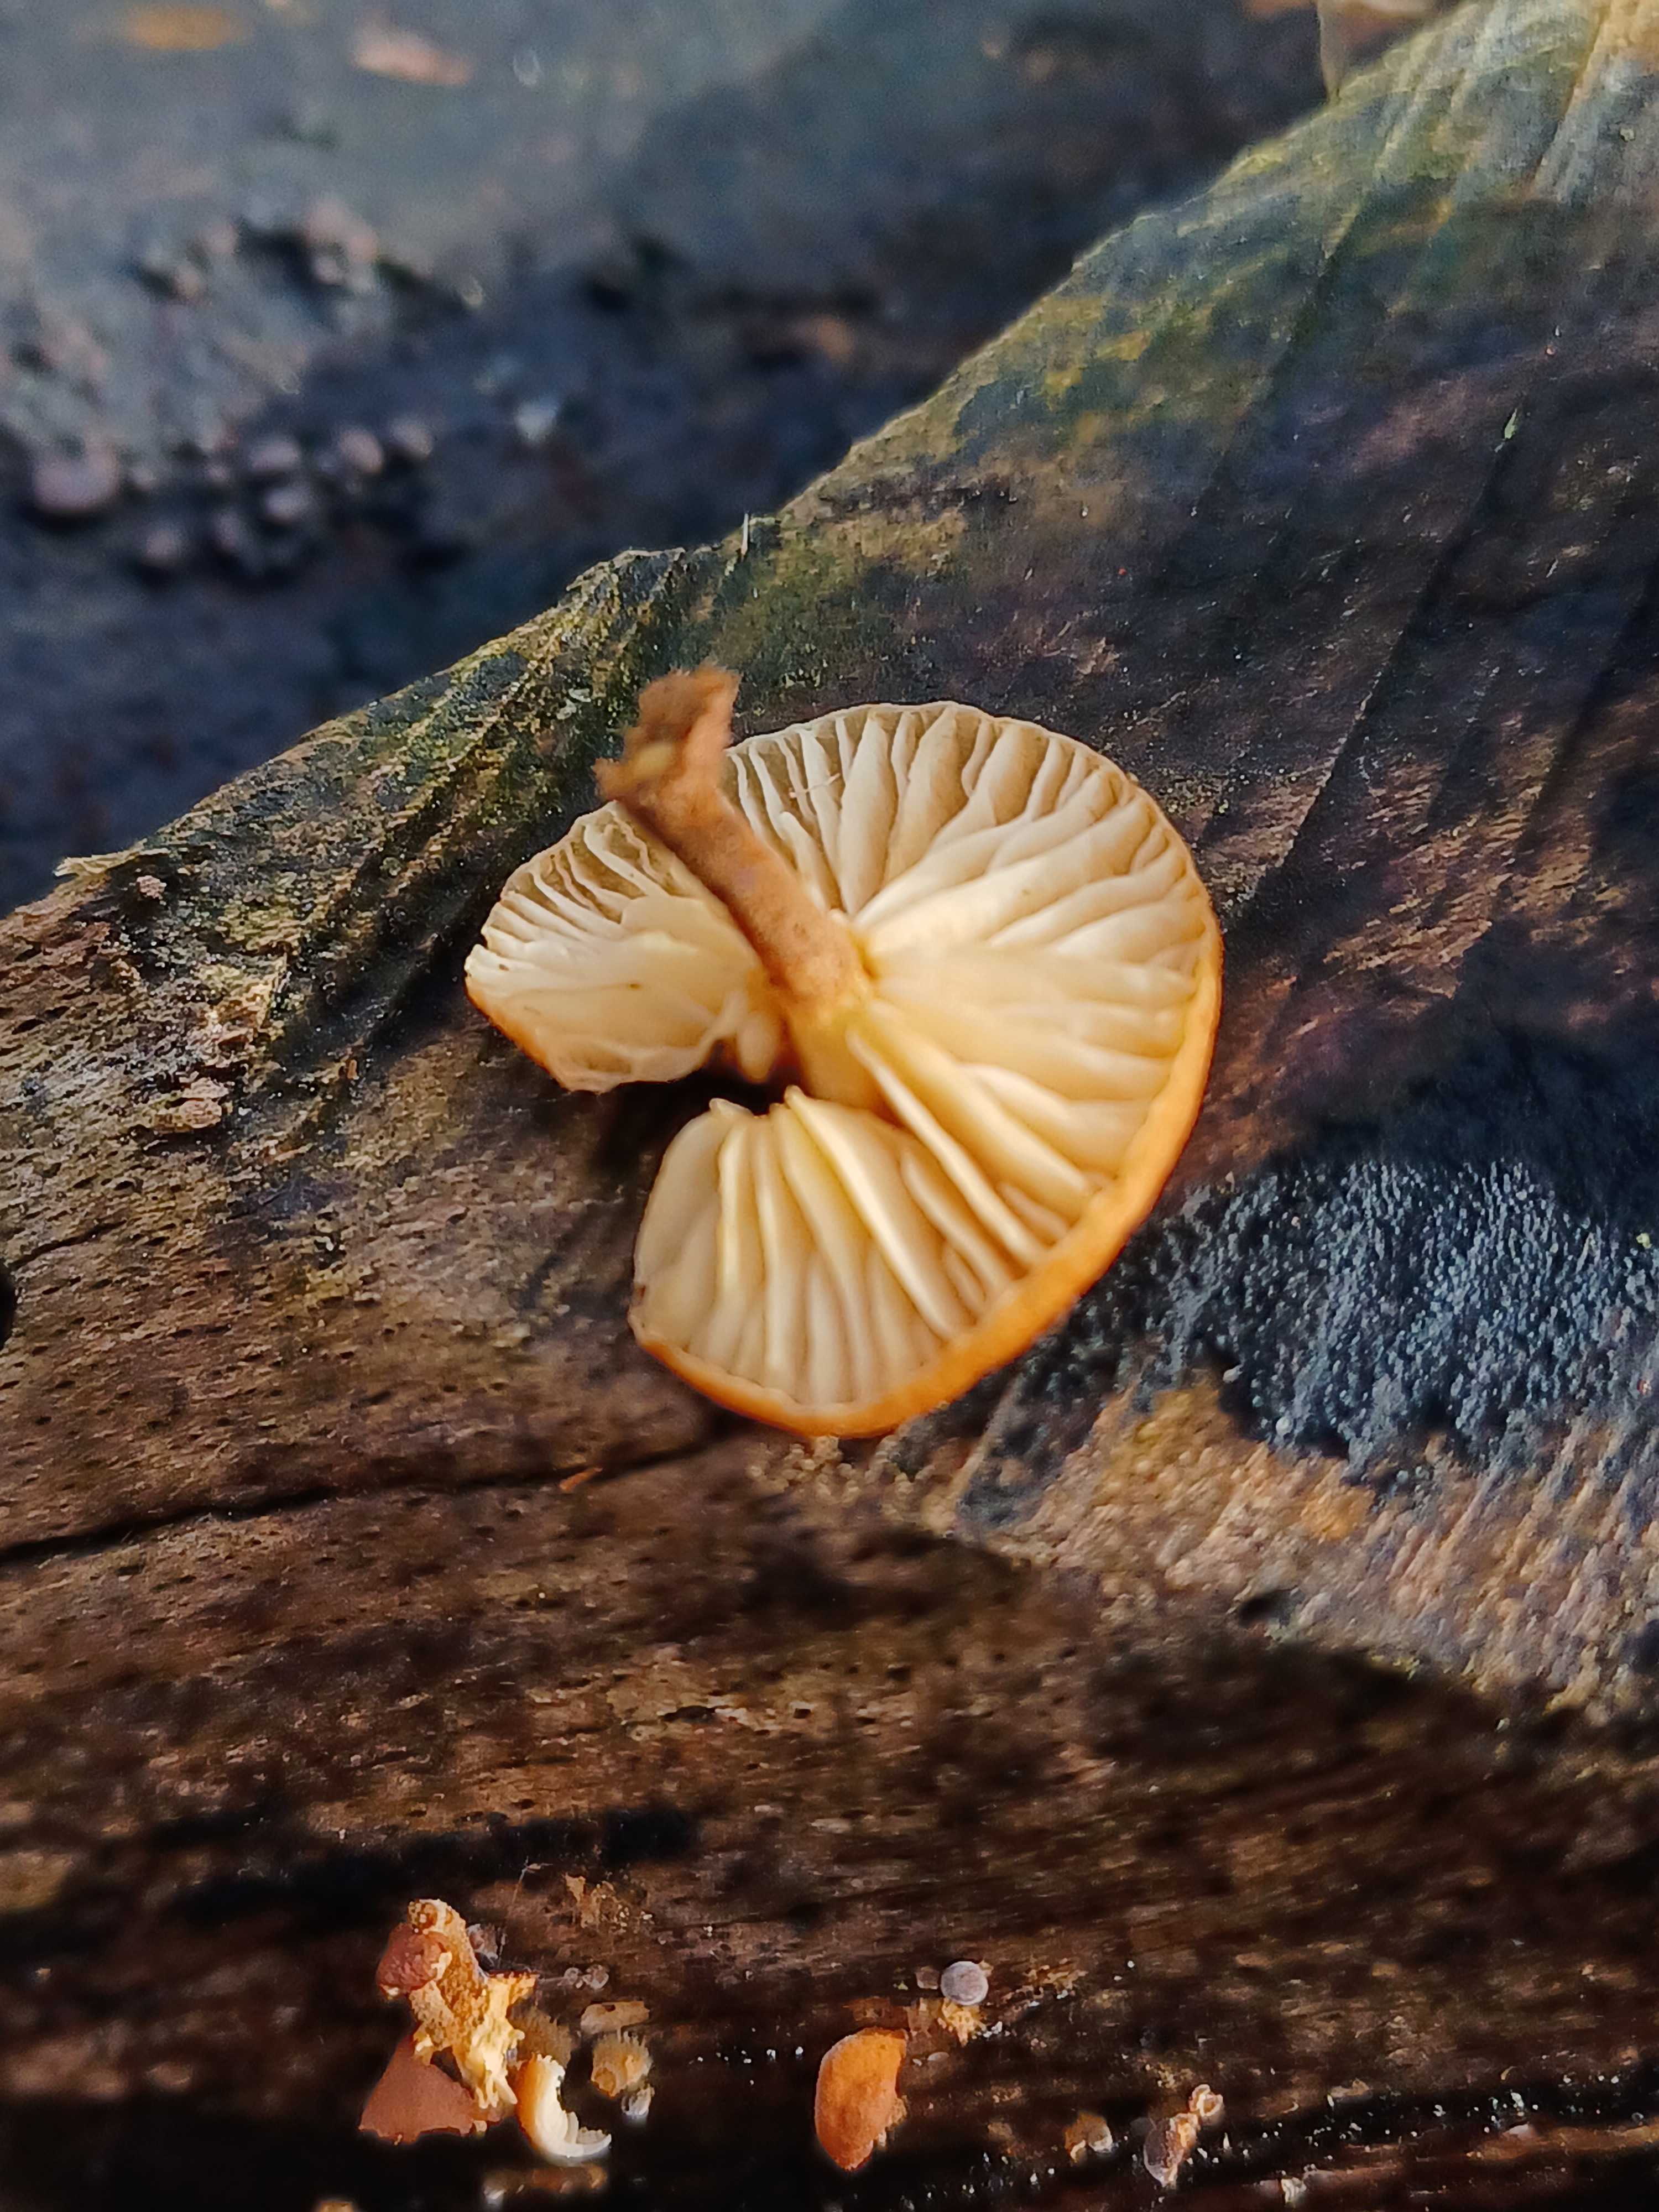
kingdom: Fungi
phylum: Basidiomycota
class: Agaricomycetes
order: Agaricales
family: Physalacriaceae
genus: Flammulina
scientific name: Flammulina velutipes
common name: gul fløjlsfod
